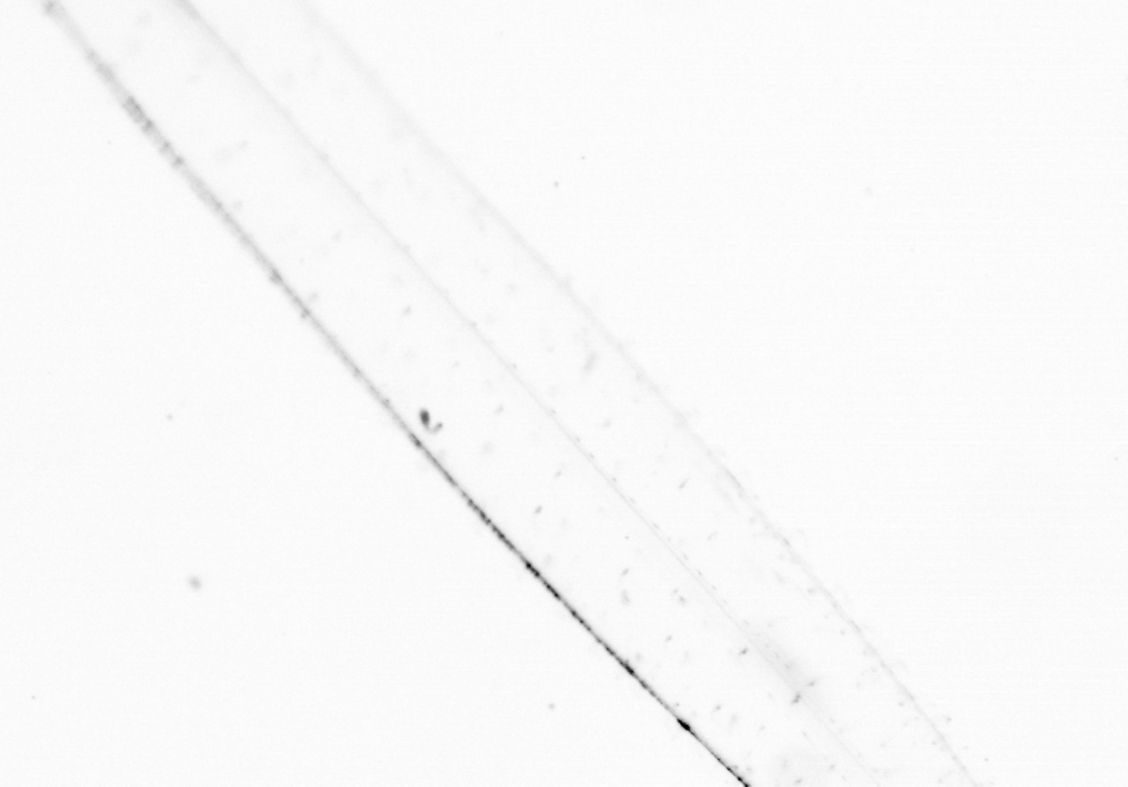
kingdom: Animalia
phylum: Chaetognatha
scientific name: Chaetognatha
